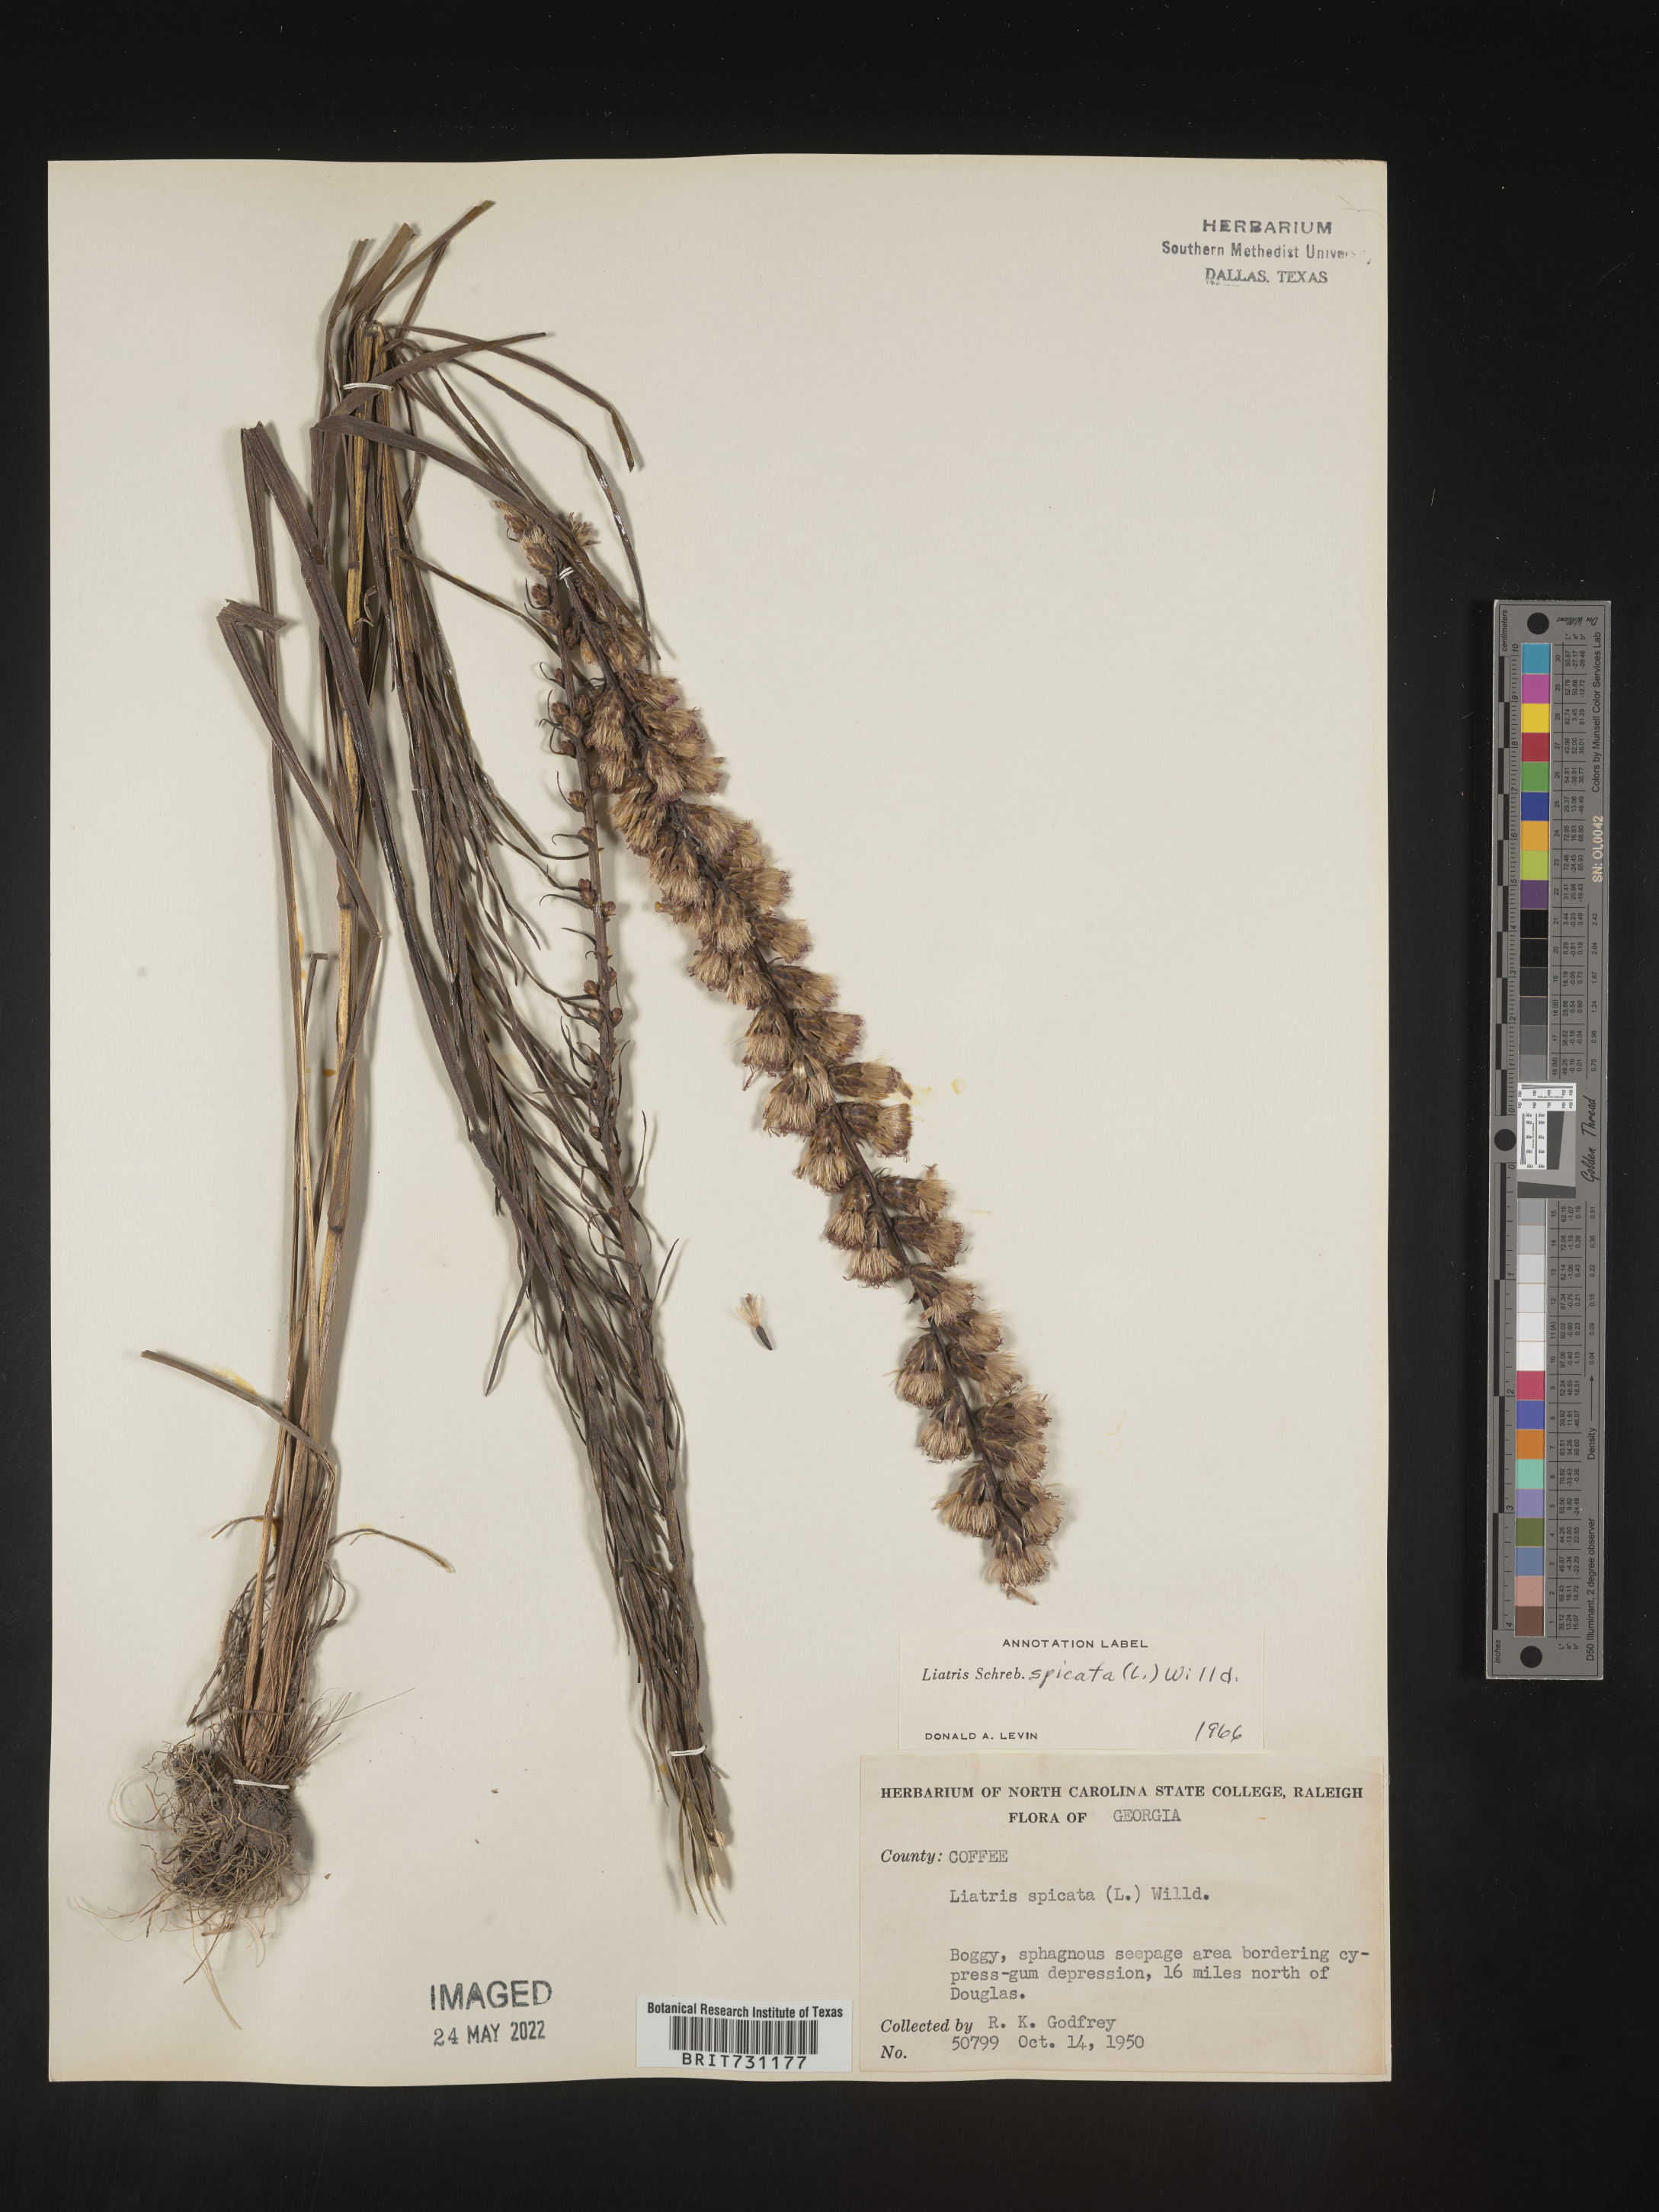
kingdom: Plantae
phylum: Tracheophyta
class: Magnoliopsida
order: Asterales
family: Asteraceae
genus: Liatris
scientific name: Liatris spicata
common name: Florist gayfeather
